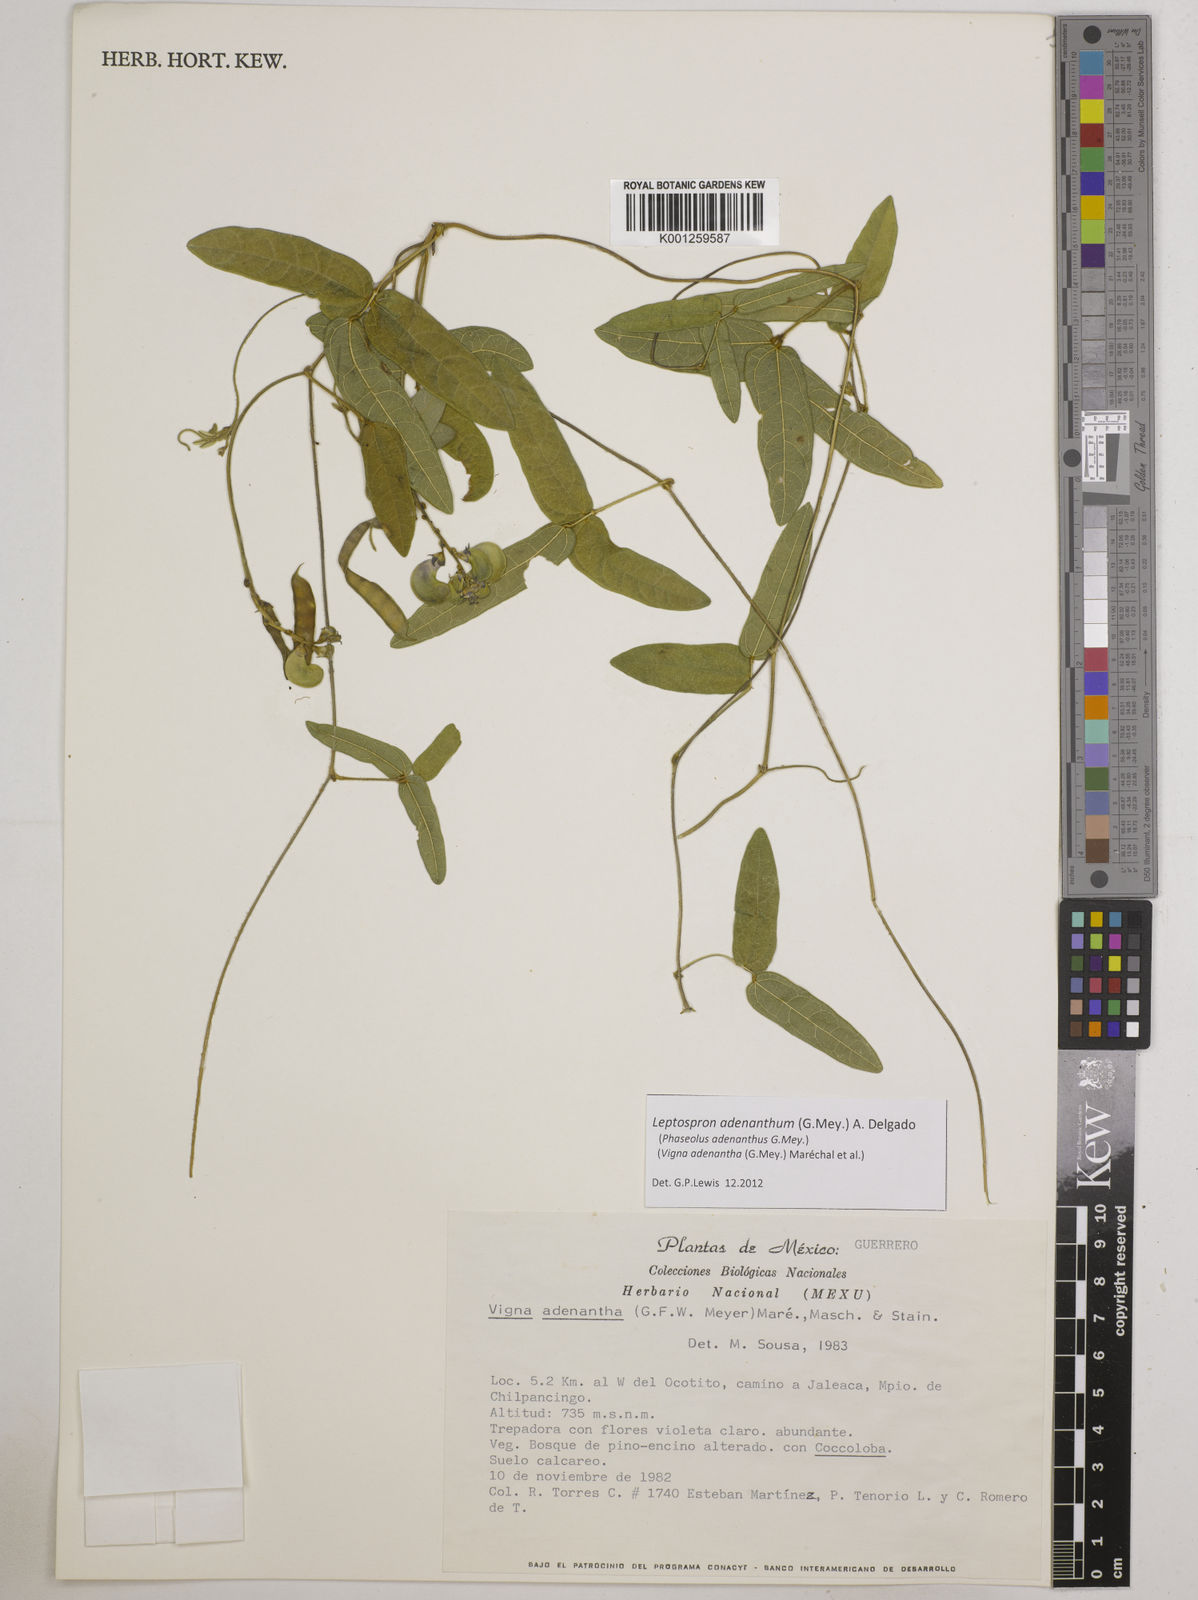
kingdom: Plantae
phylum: Tracheophyta
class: Magnoliopsida
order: Fabales
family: Fabaceae
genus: Leptospron
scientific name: Leptospron adenanthum
